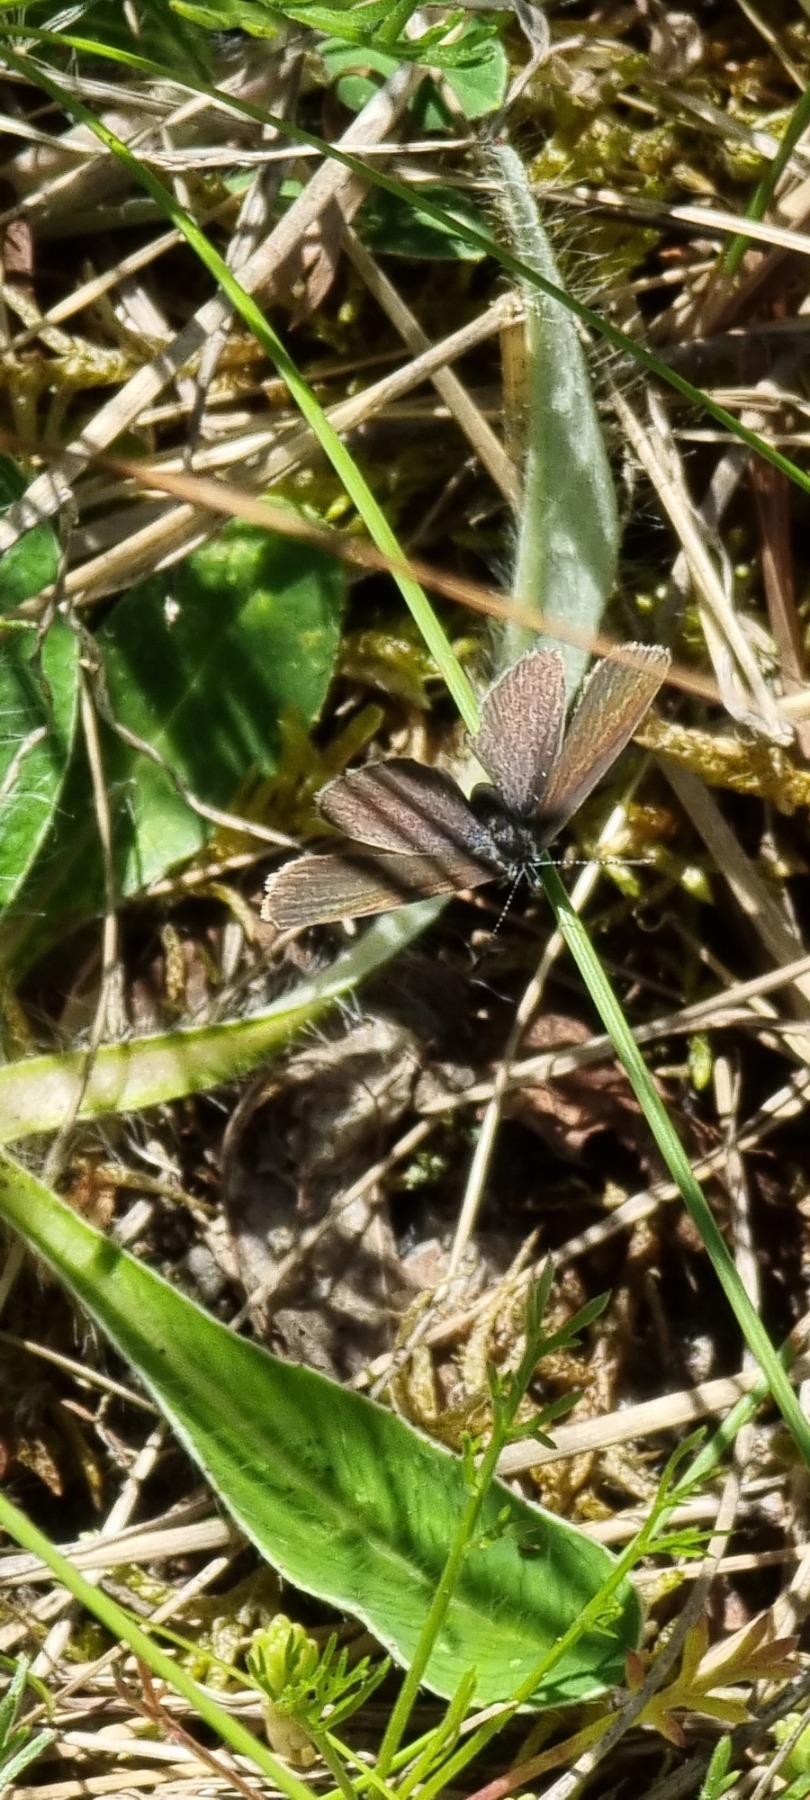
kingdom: Animalia
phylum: Arthropoda
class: Insecta
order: Lepidoptera
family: Lycaenidae
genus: Cupido
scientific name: Cupido minimus
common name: Dværgblåfugl
